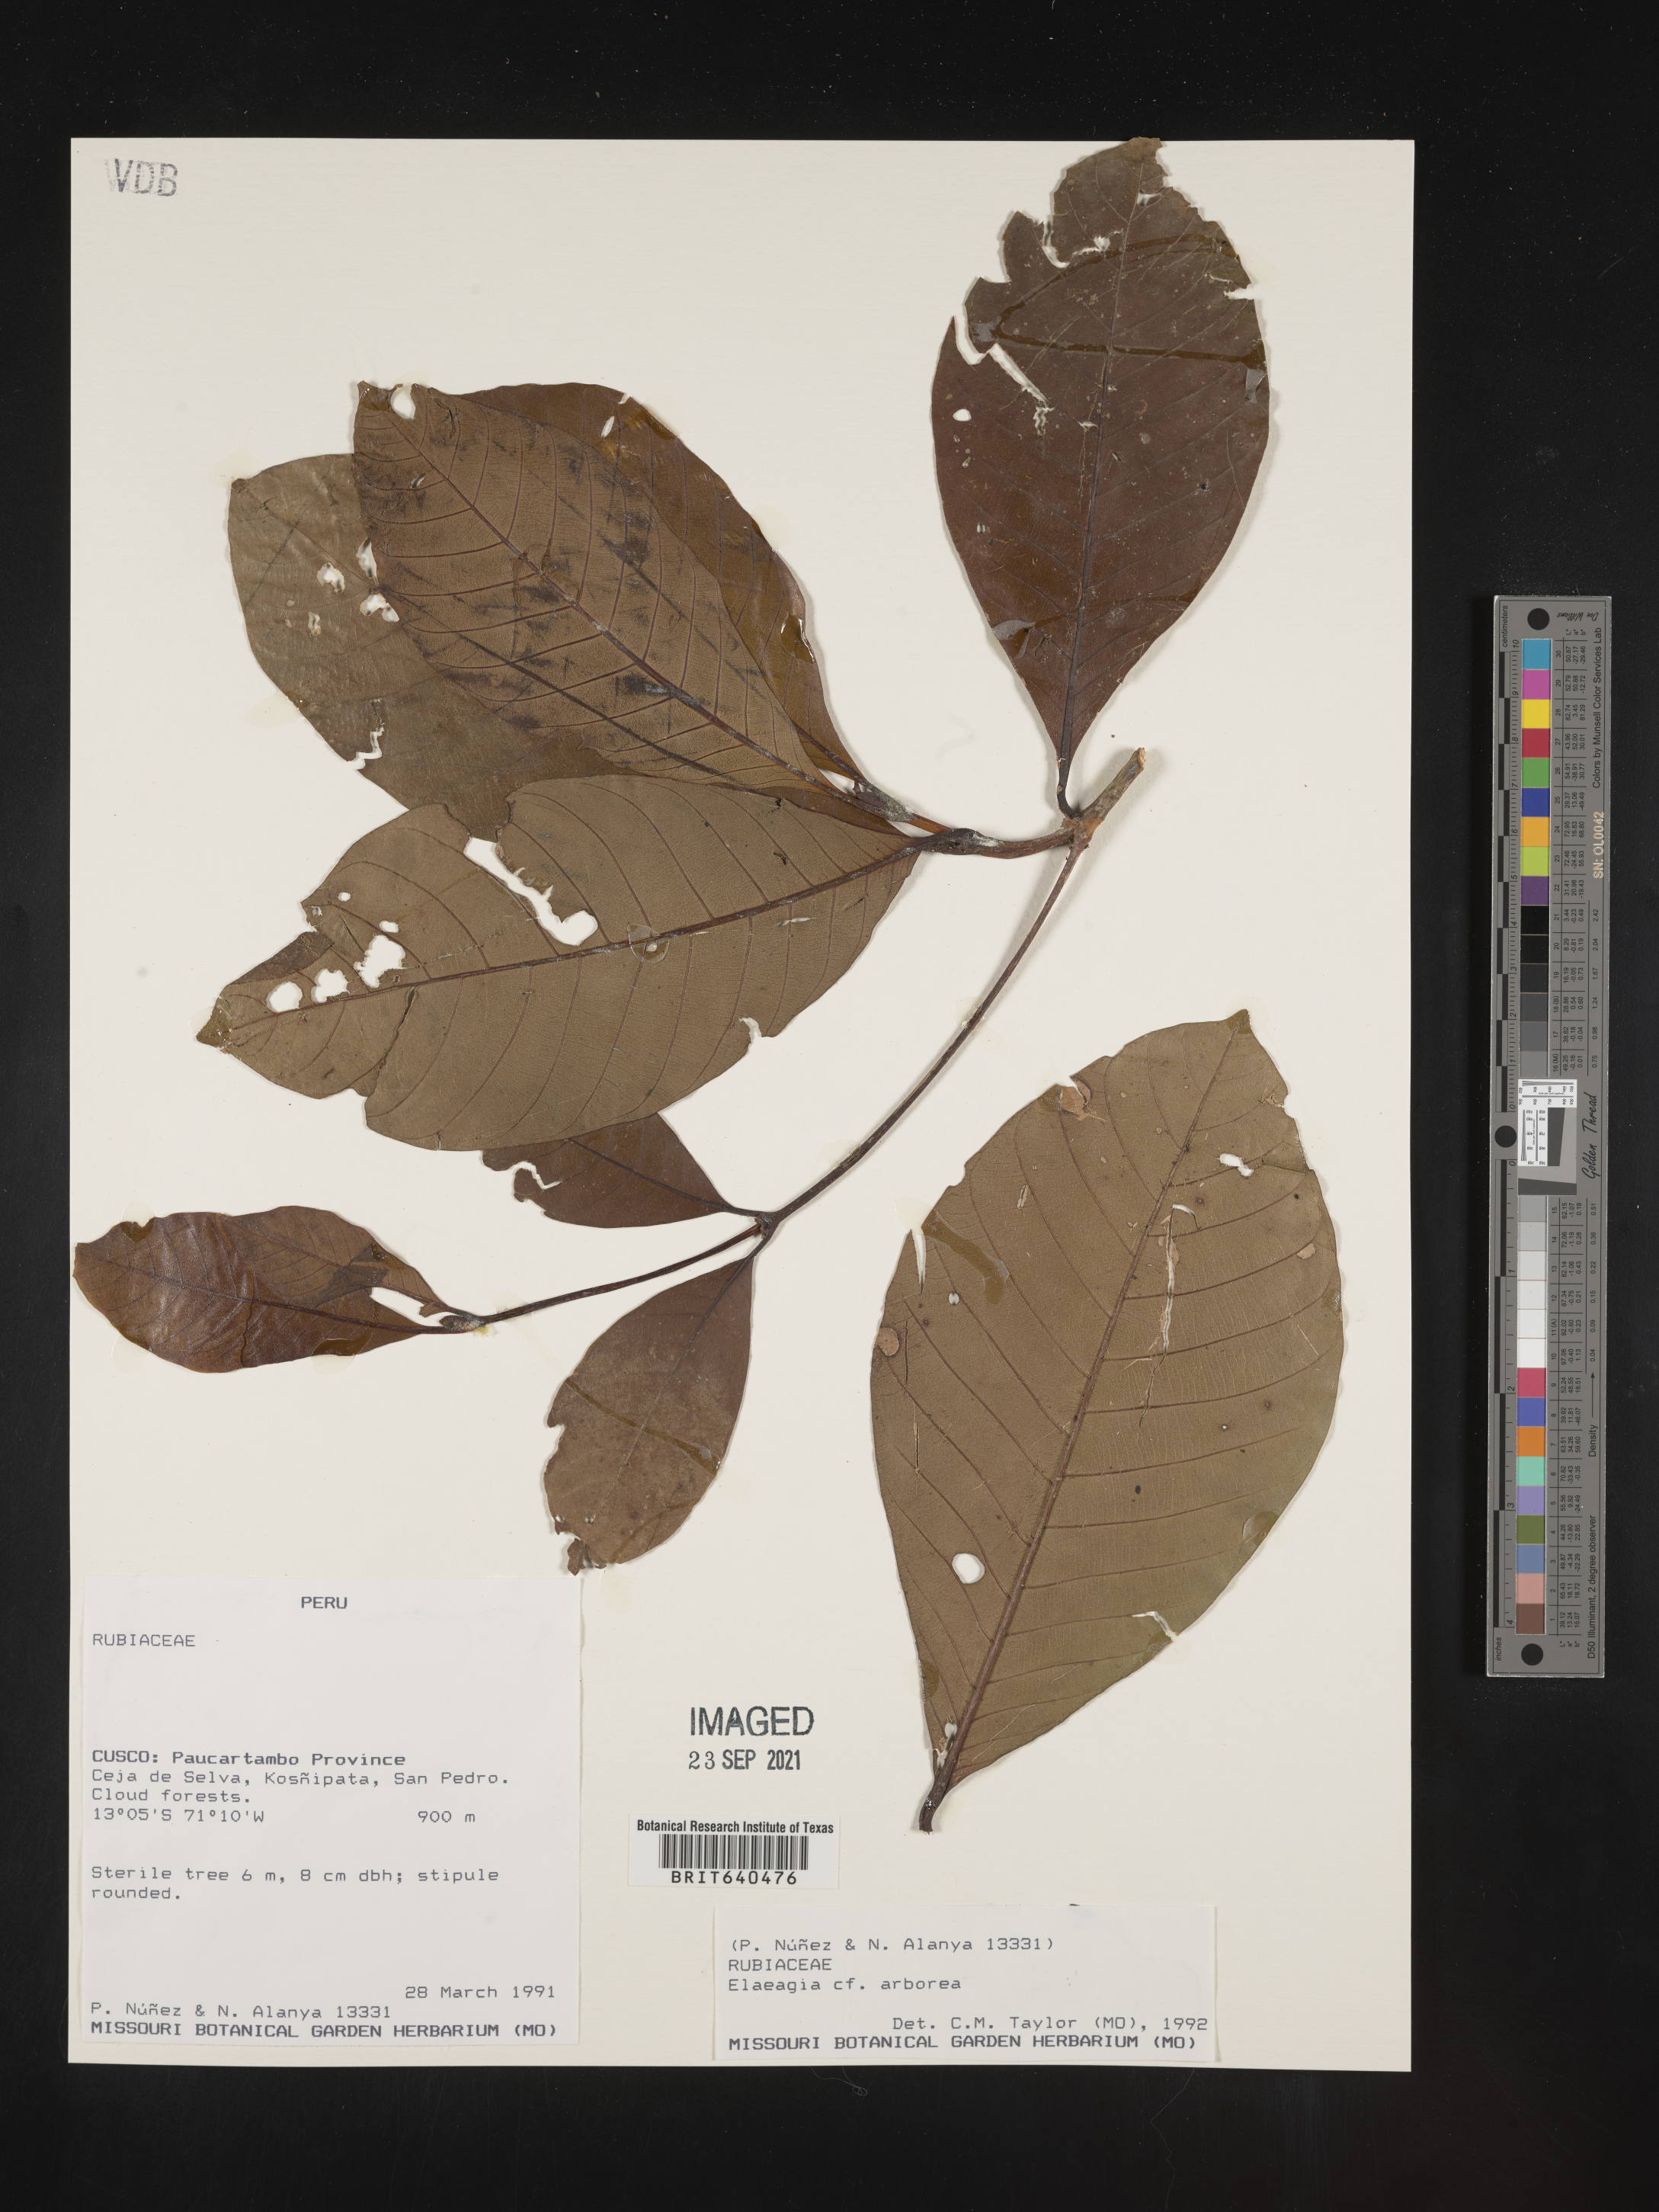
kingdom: Plantae
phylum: Tracheophyta
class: Magnoliopsida
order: Gentianales
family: Rubiaceae
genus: Elaeagia
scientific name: Elaeagia
